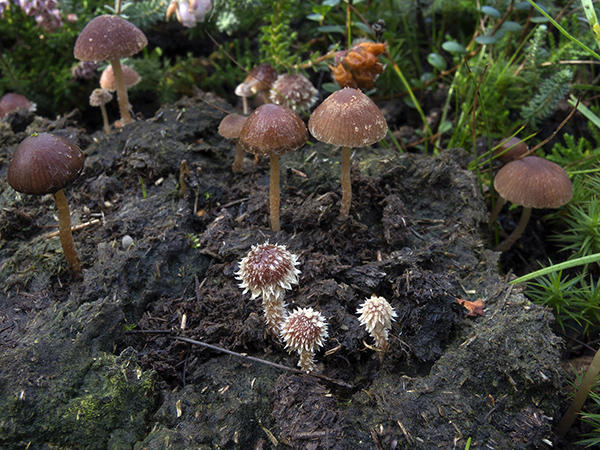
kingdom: Fungi
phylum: Basidiomycota
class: Agaricomycetes
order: Agaricales
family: Psathyrellaceae
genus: Psathyrella
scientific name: Psathyrella hirta
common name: møg-mørkhat
